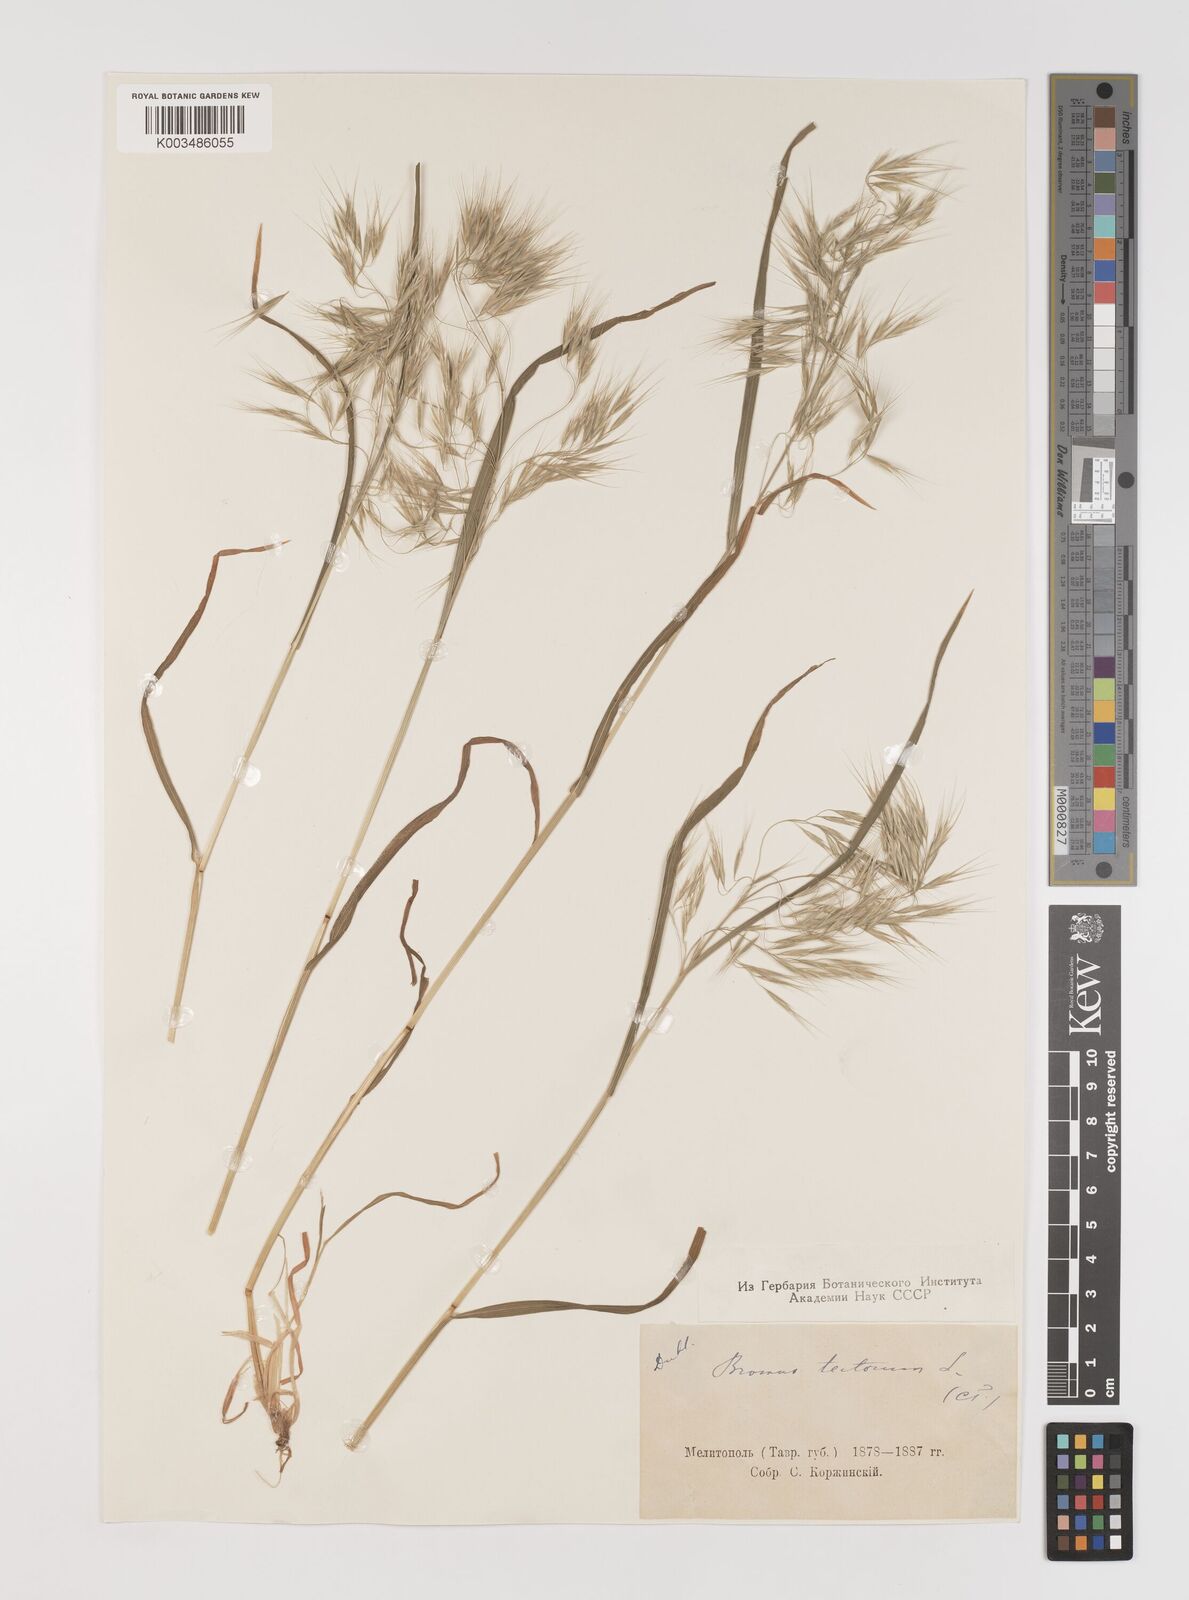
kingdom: Plantae
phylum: Tracheophyta
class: Liliopsida
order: Poales
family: Poaceae
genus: Bromus
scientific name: Bromus tectorum
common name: Cheatgrass
